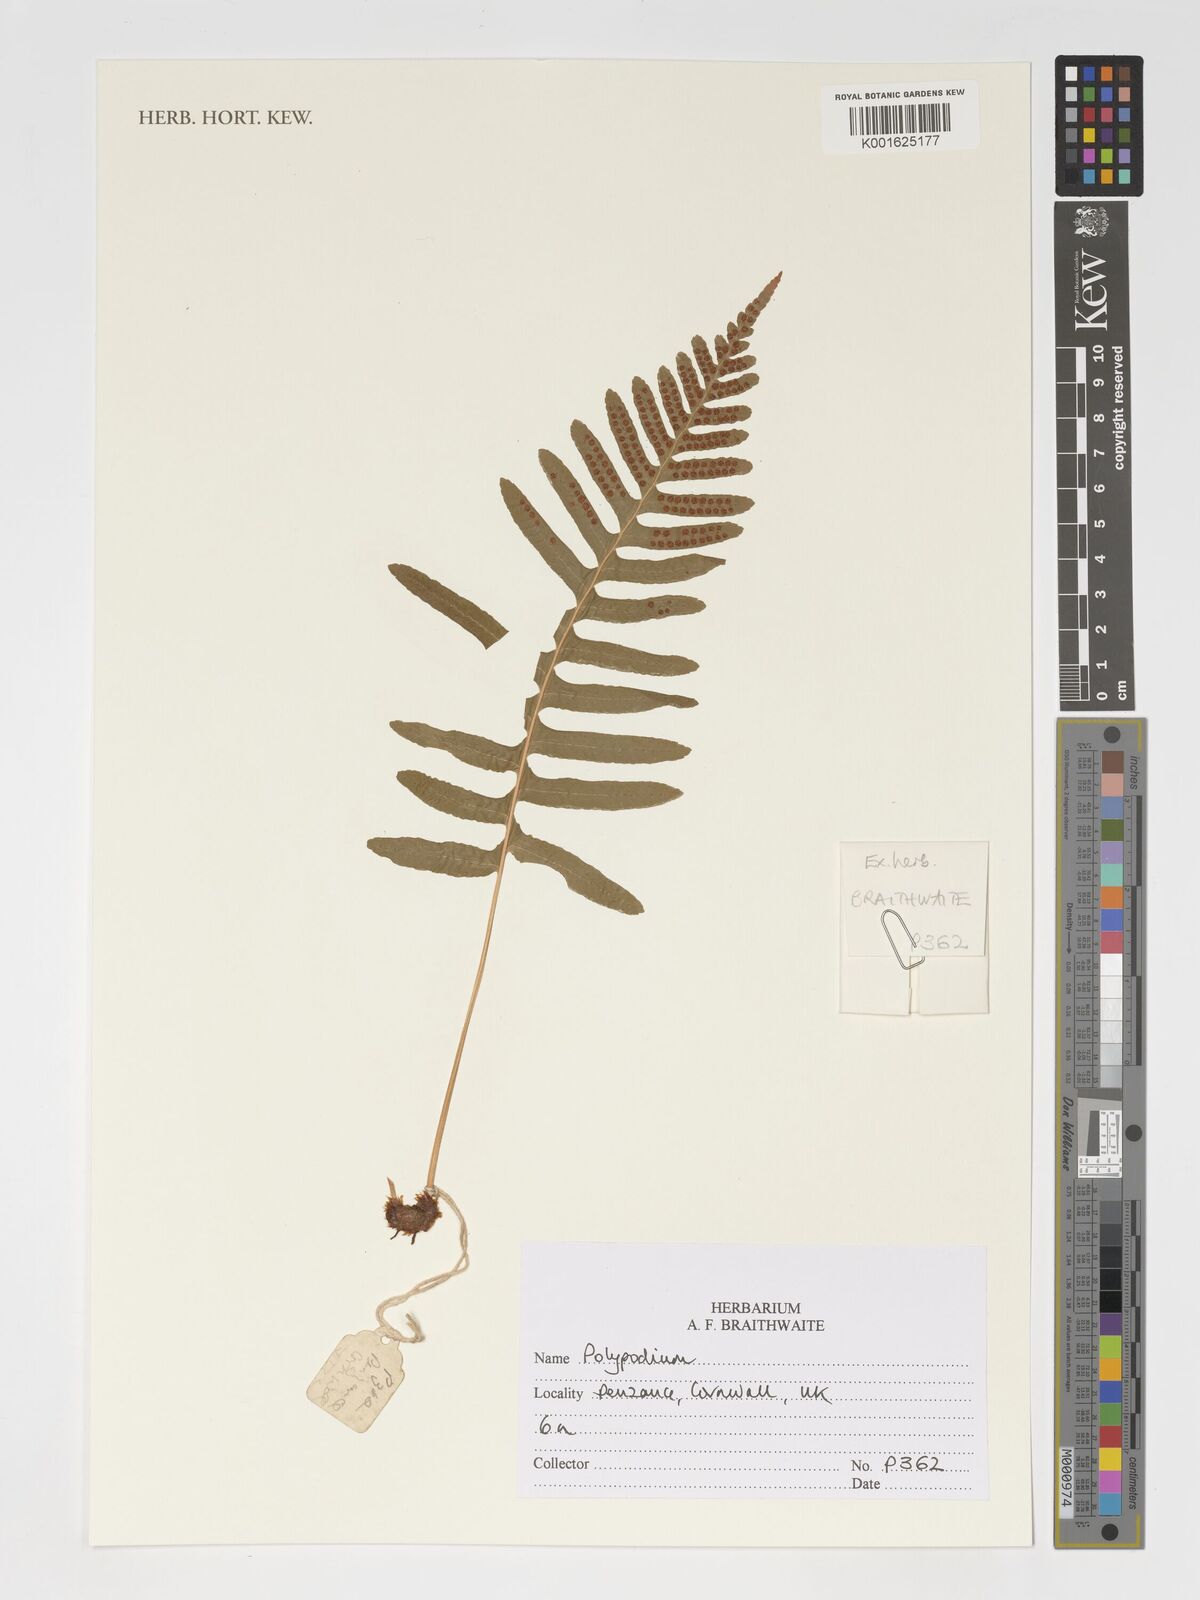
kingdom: Plantae
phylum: Tracheophyta
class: Polypodiopsida
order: Polypodiales
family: Polypodiaceae
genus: Polypodium
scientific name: Polypodium
